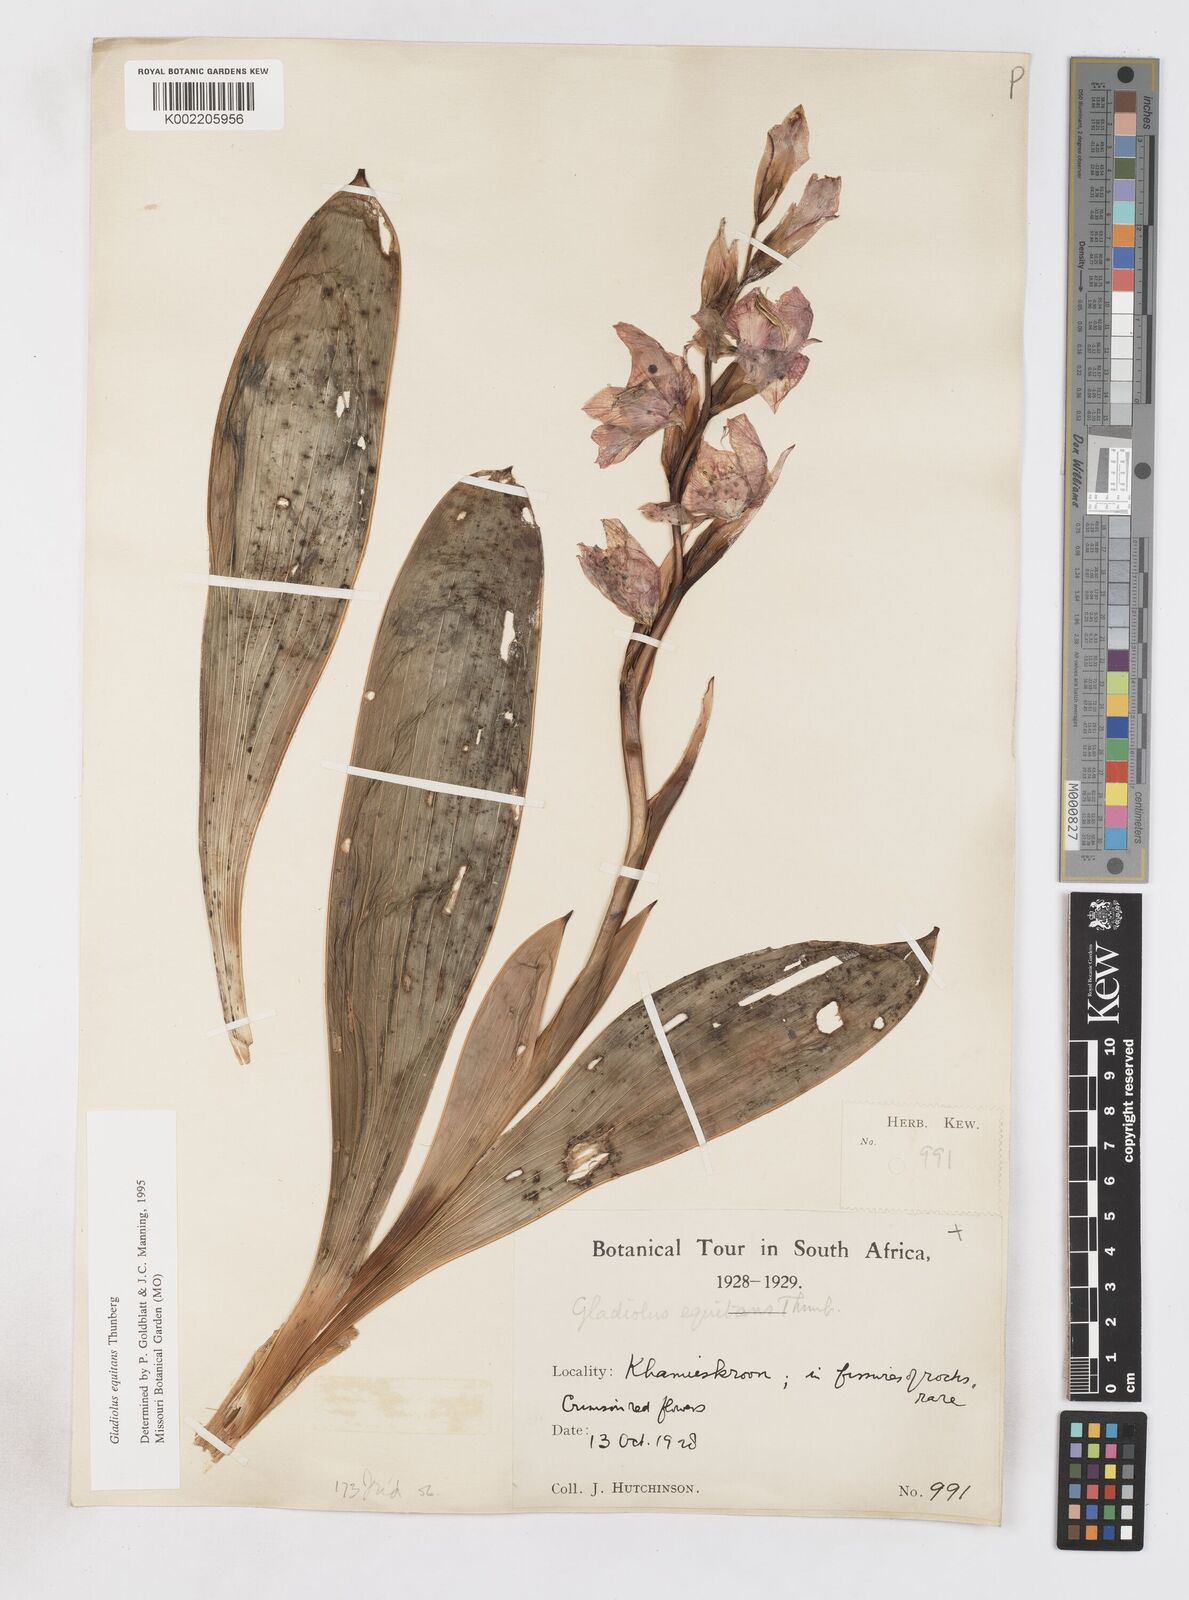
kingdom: Plantae
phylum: Tracheophyta
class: Liliopsida
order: Asparagales
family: Iridaceae
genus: Gladiolus
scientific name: Gladiolus equitans
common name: Large red kalkoentjie
